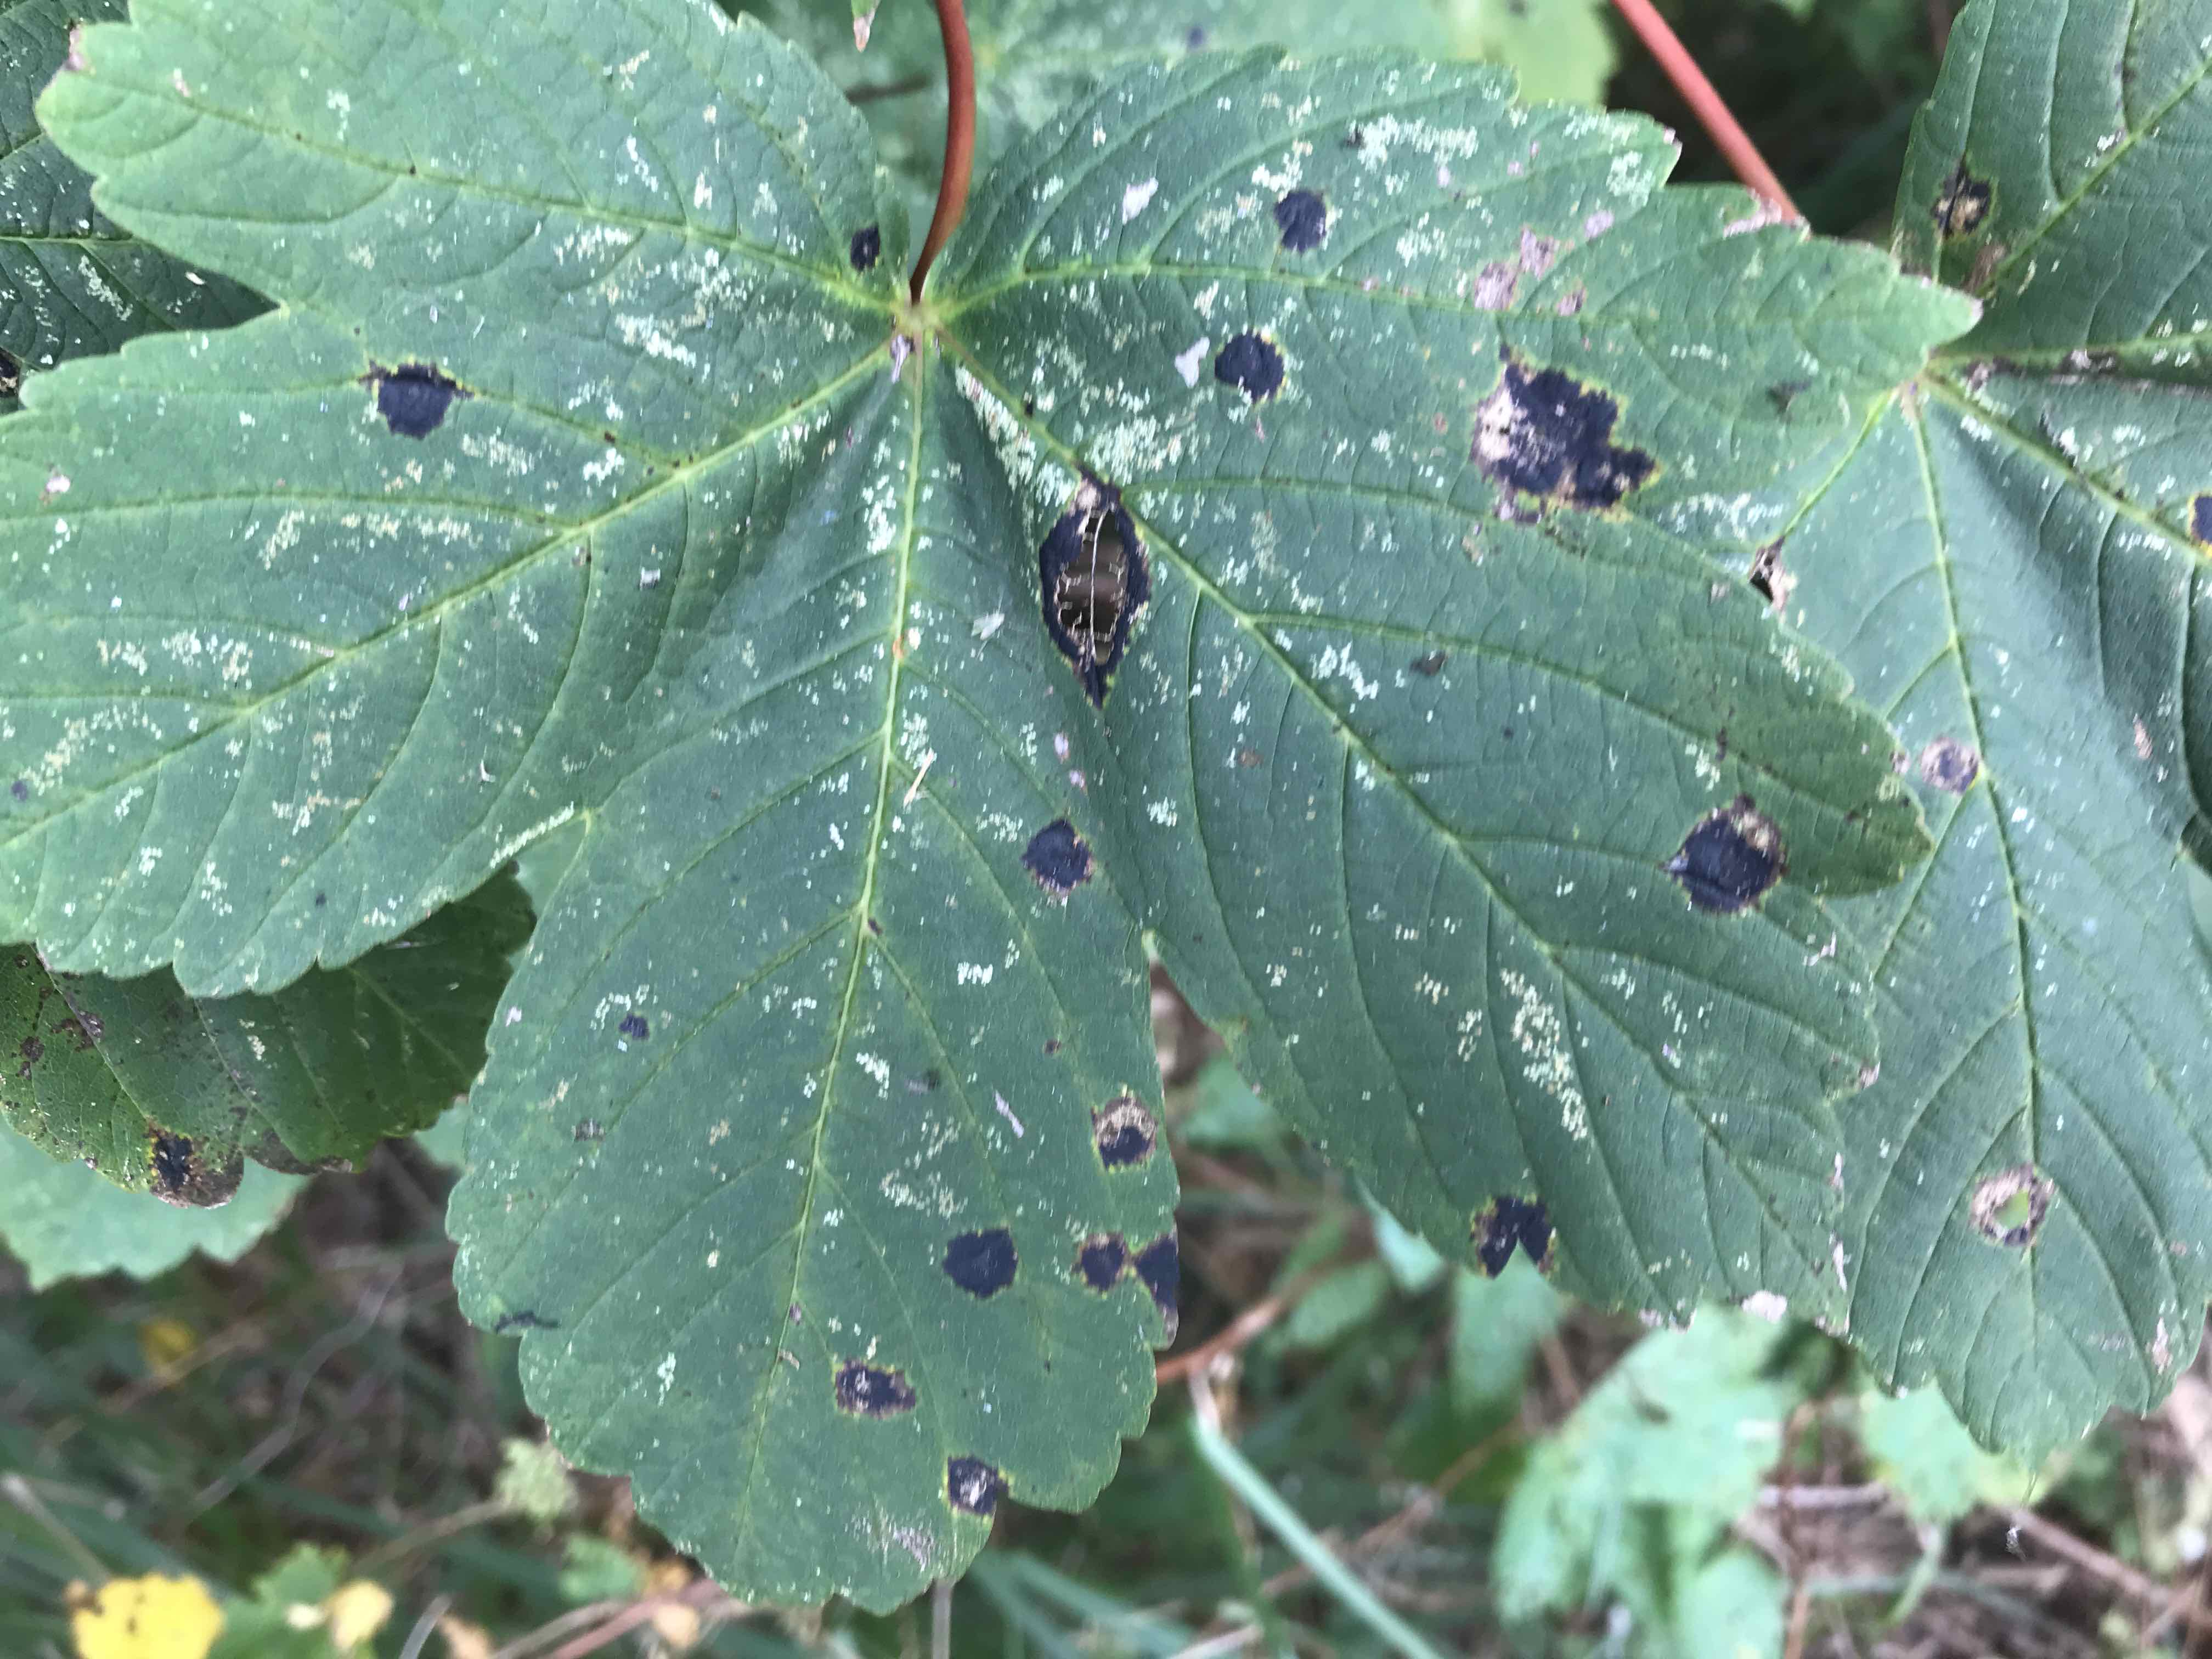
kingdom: Fungi
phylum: Ascomycota
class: Leotiomycetes
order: Rhytismatales
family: Rhytismataceae
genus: Rhytisma
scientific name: Rhytisma acerinum
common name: ahorn-rynkeplet
